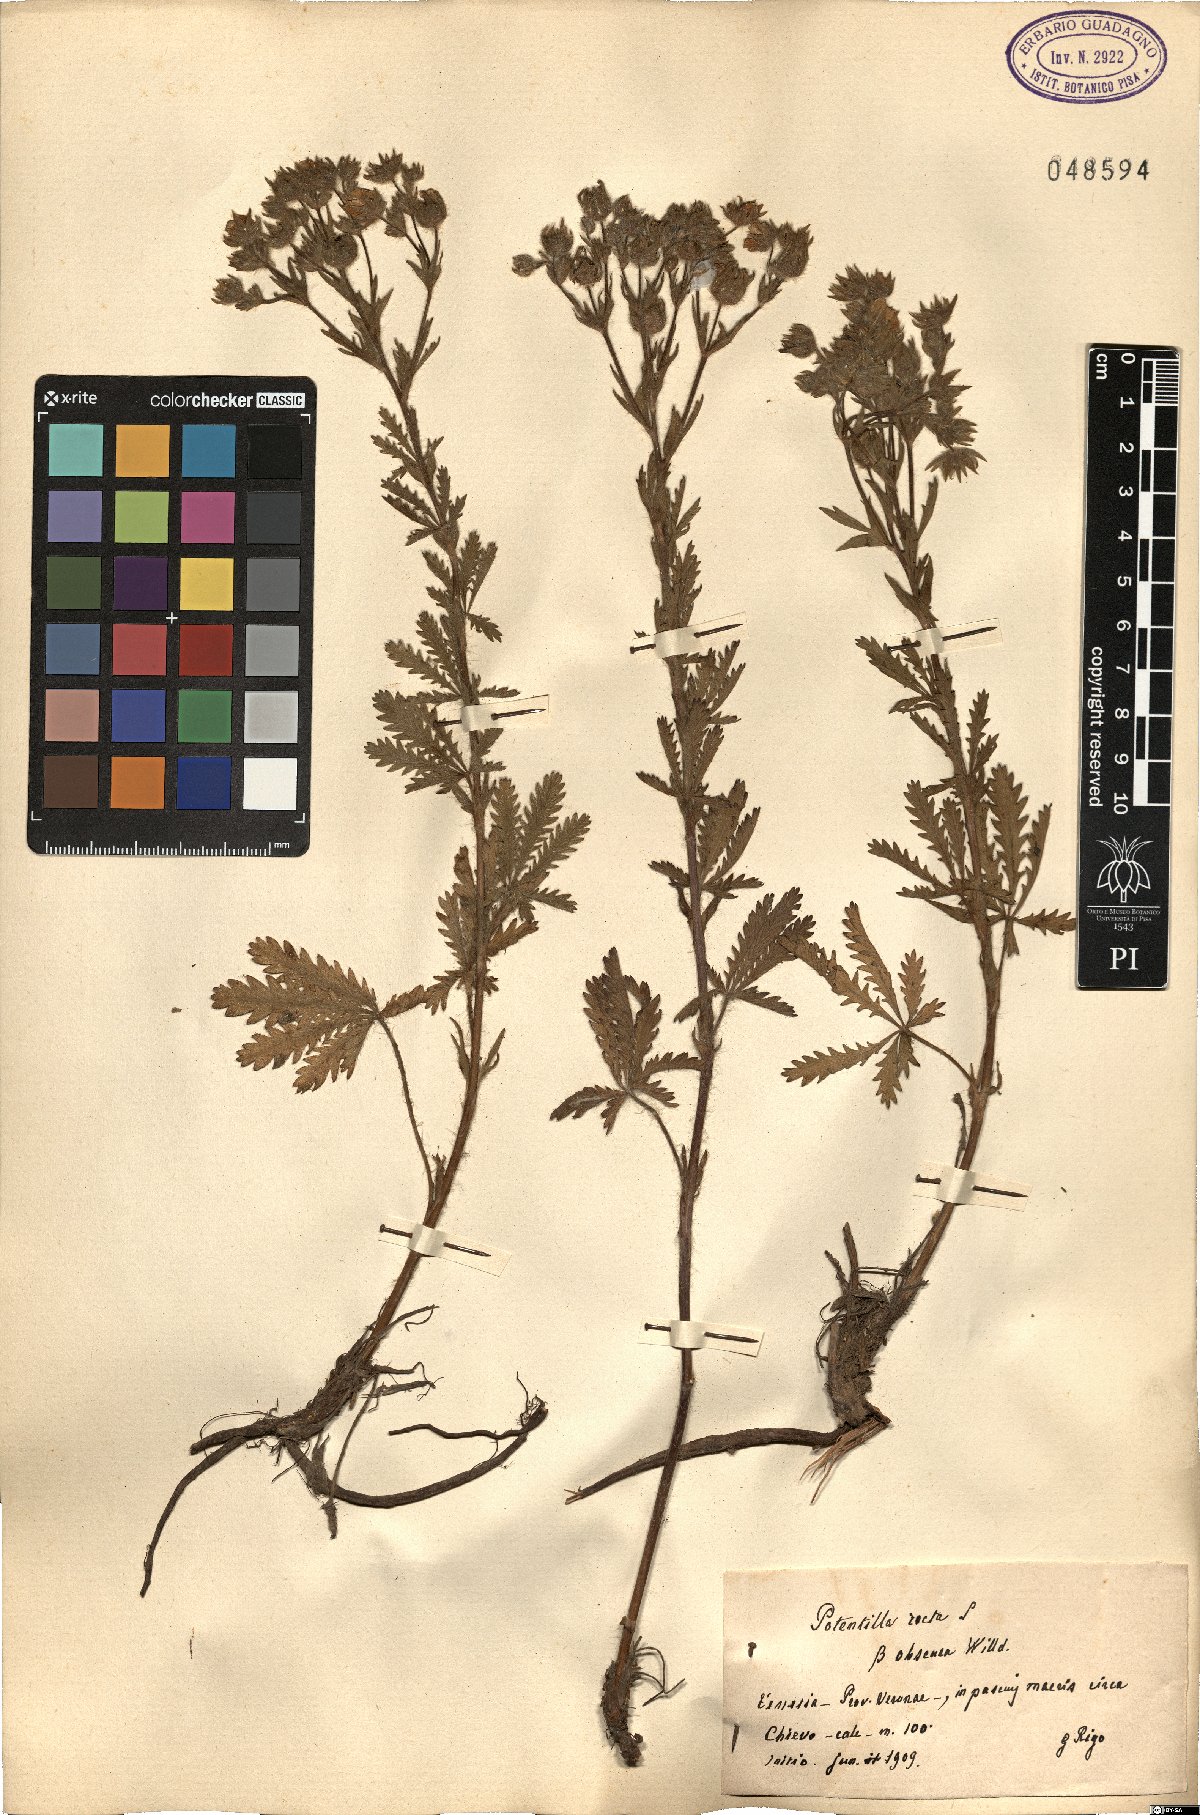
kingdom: Plantae
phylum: Tracheophyta
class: Magnoliopsida
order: Rosales
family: Rosaceae
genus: Potentilla
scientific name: Potentilla recta
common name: Sulphur cinquefoil
